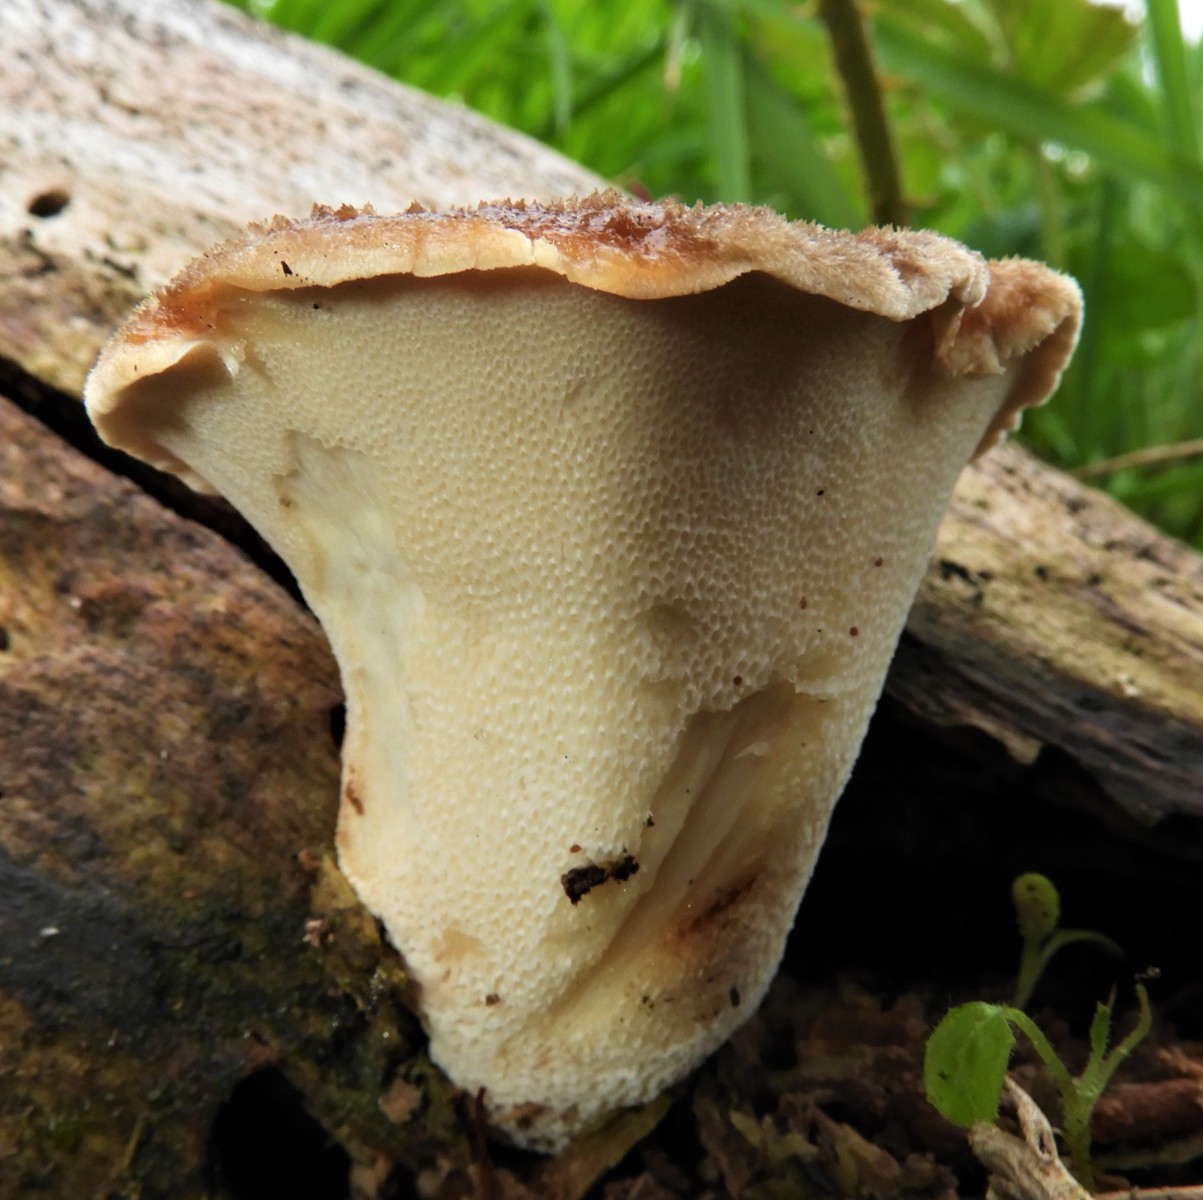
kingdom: Fungi
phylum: Basidiomycota
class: Agaricomycetes
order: Polyporales
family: Polyporaceae
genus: Polyporus
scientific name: Polyporus tuberaster
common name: knoldet stilkporesvamp
